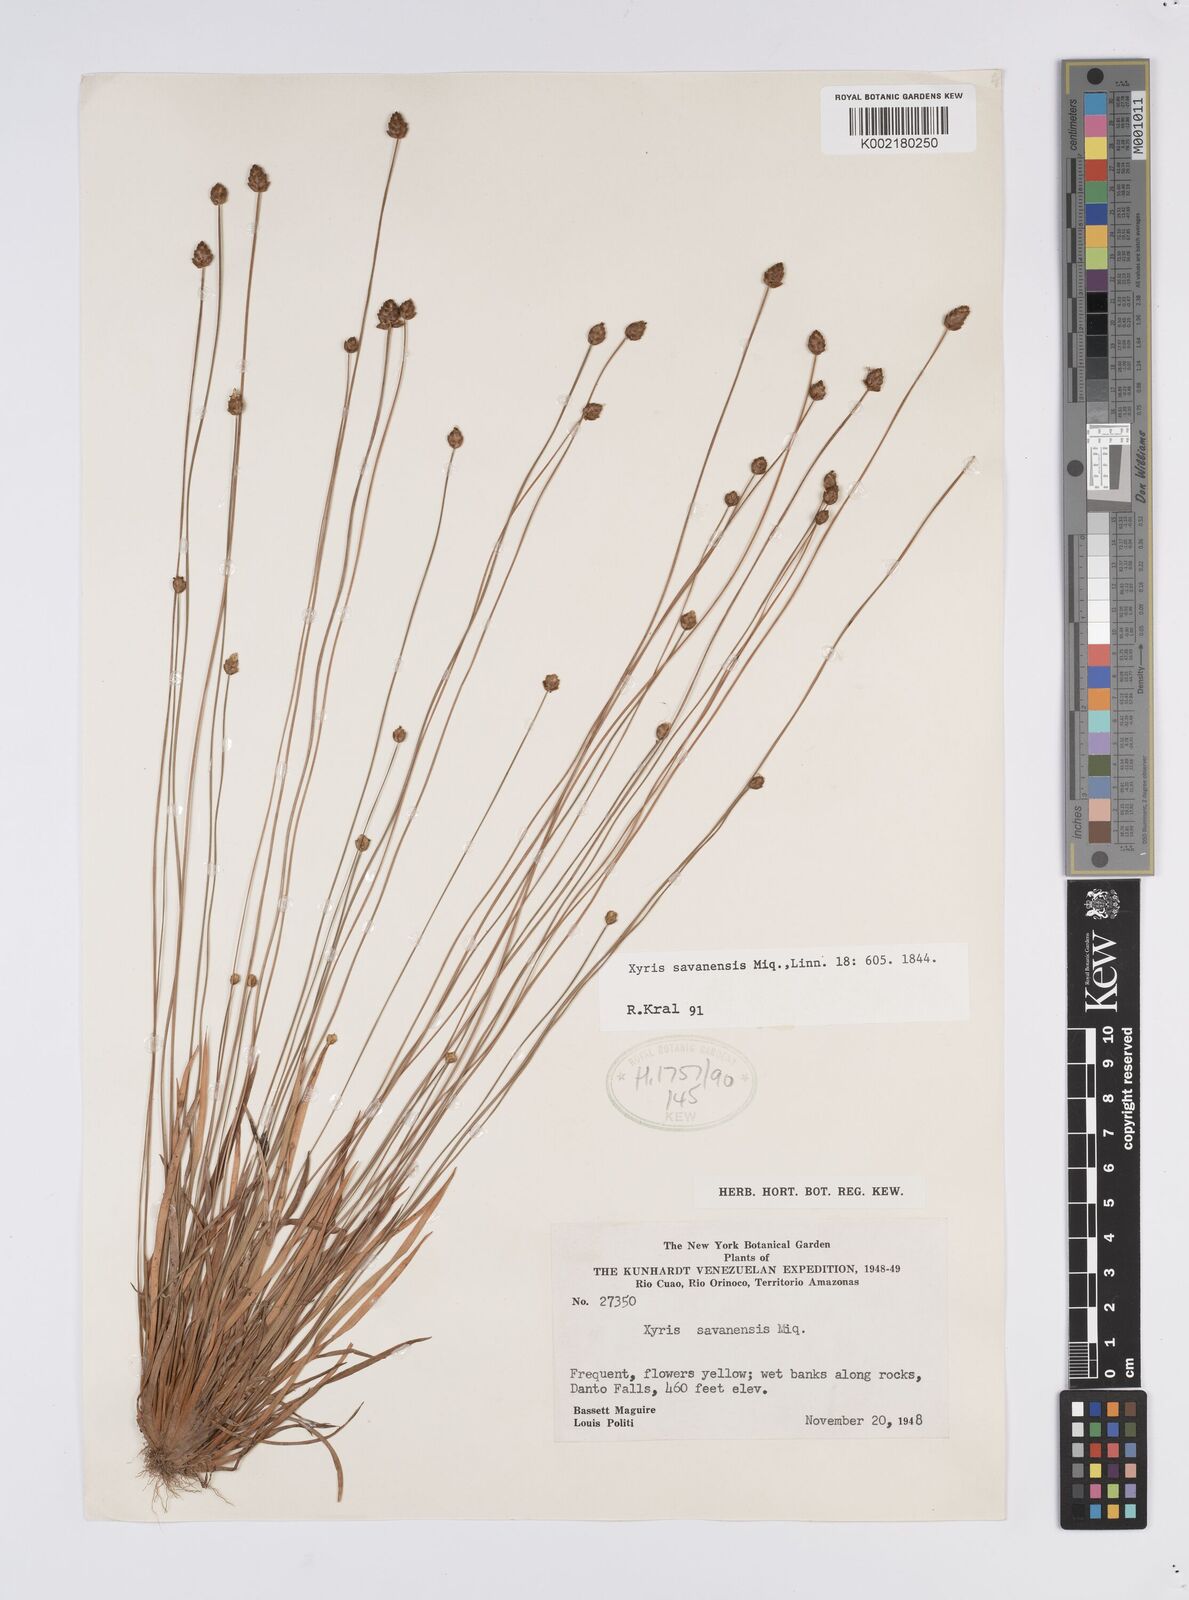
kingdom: Plantae
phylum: Tracheophyta
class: Liliopsida
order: Poales
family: Xyridaceae
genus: Xyris
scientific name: Xyris savanensis
